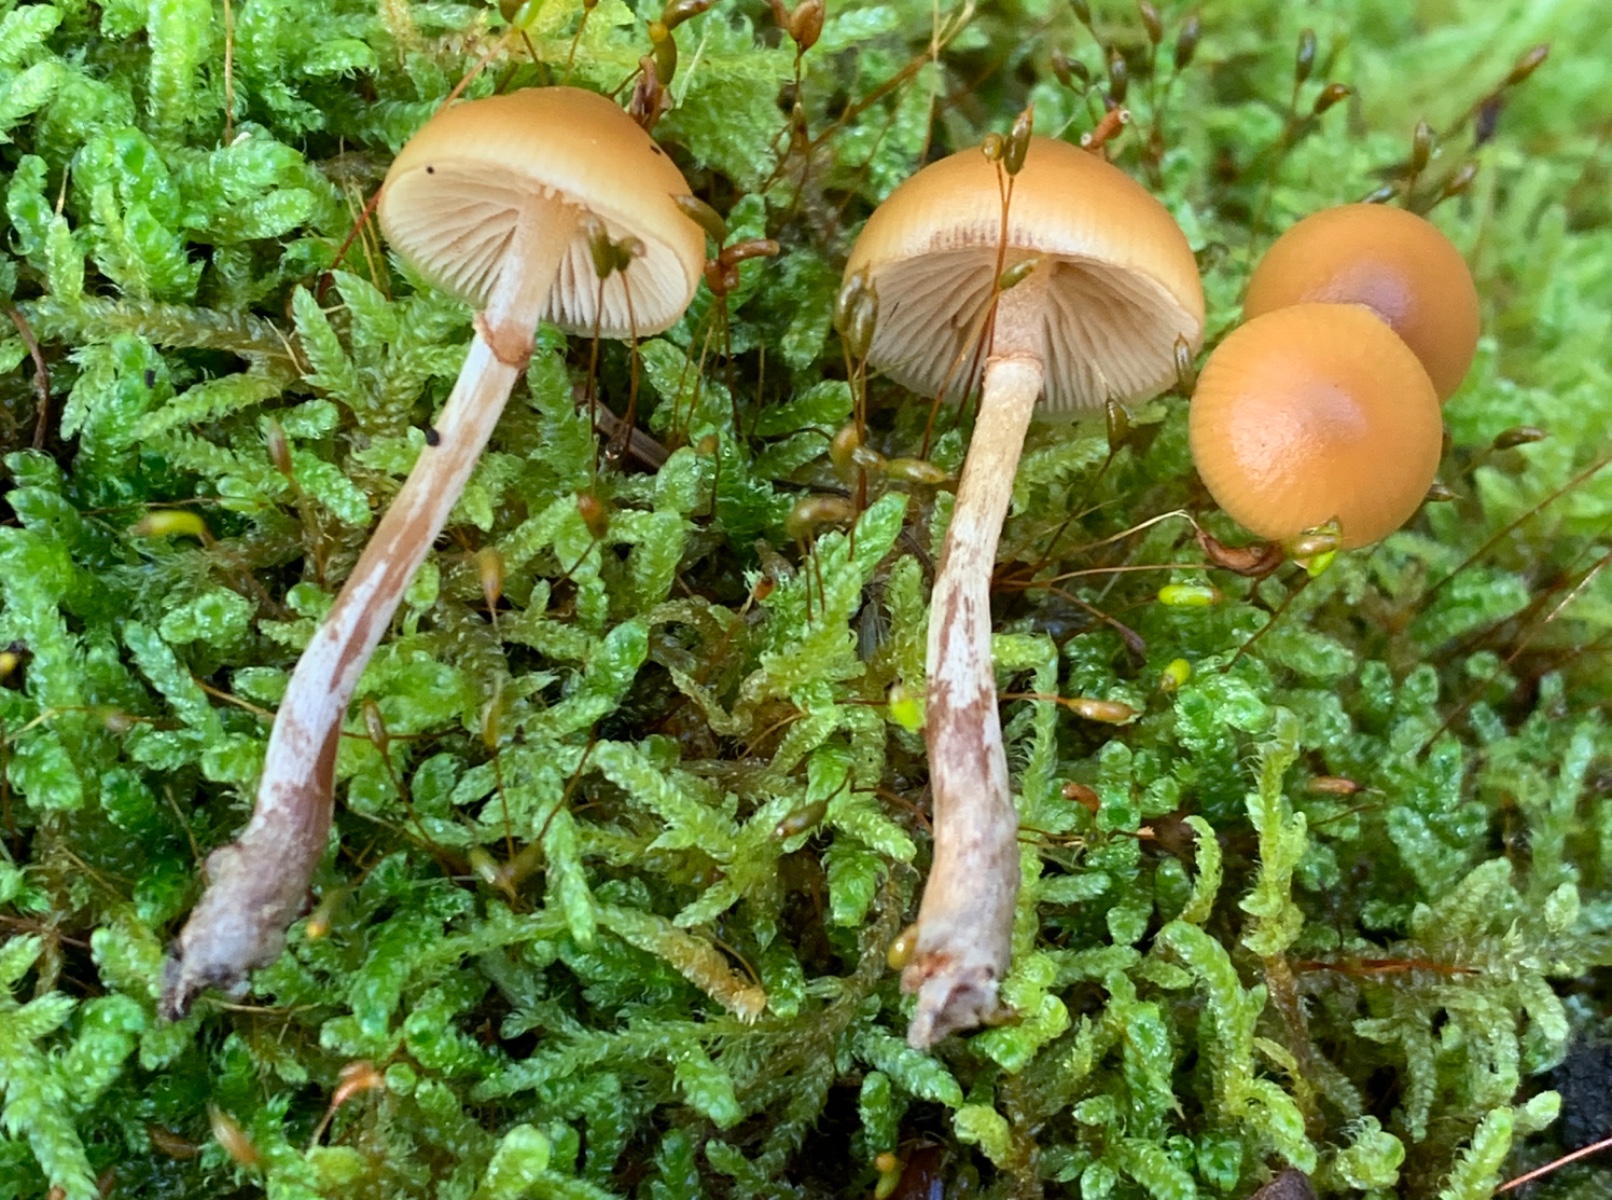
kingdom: Fungi
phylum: Basidiomycota
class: Agaricomycetes
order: Agaricales
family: Hymenogastraceae
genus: Galerina
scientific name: Galerina marginata
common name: randbæltet hjelmhat
